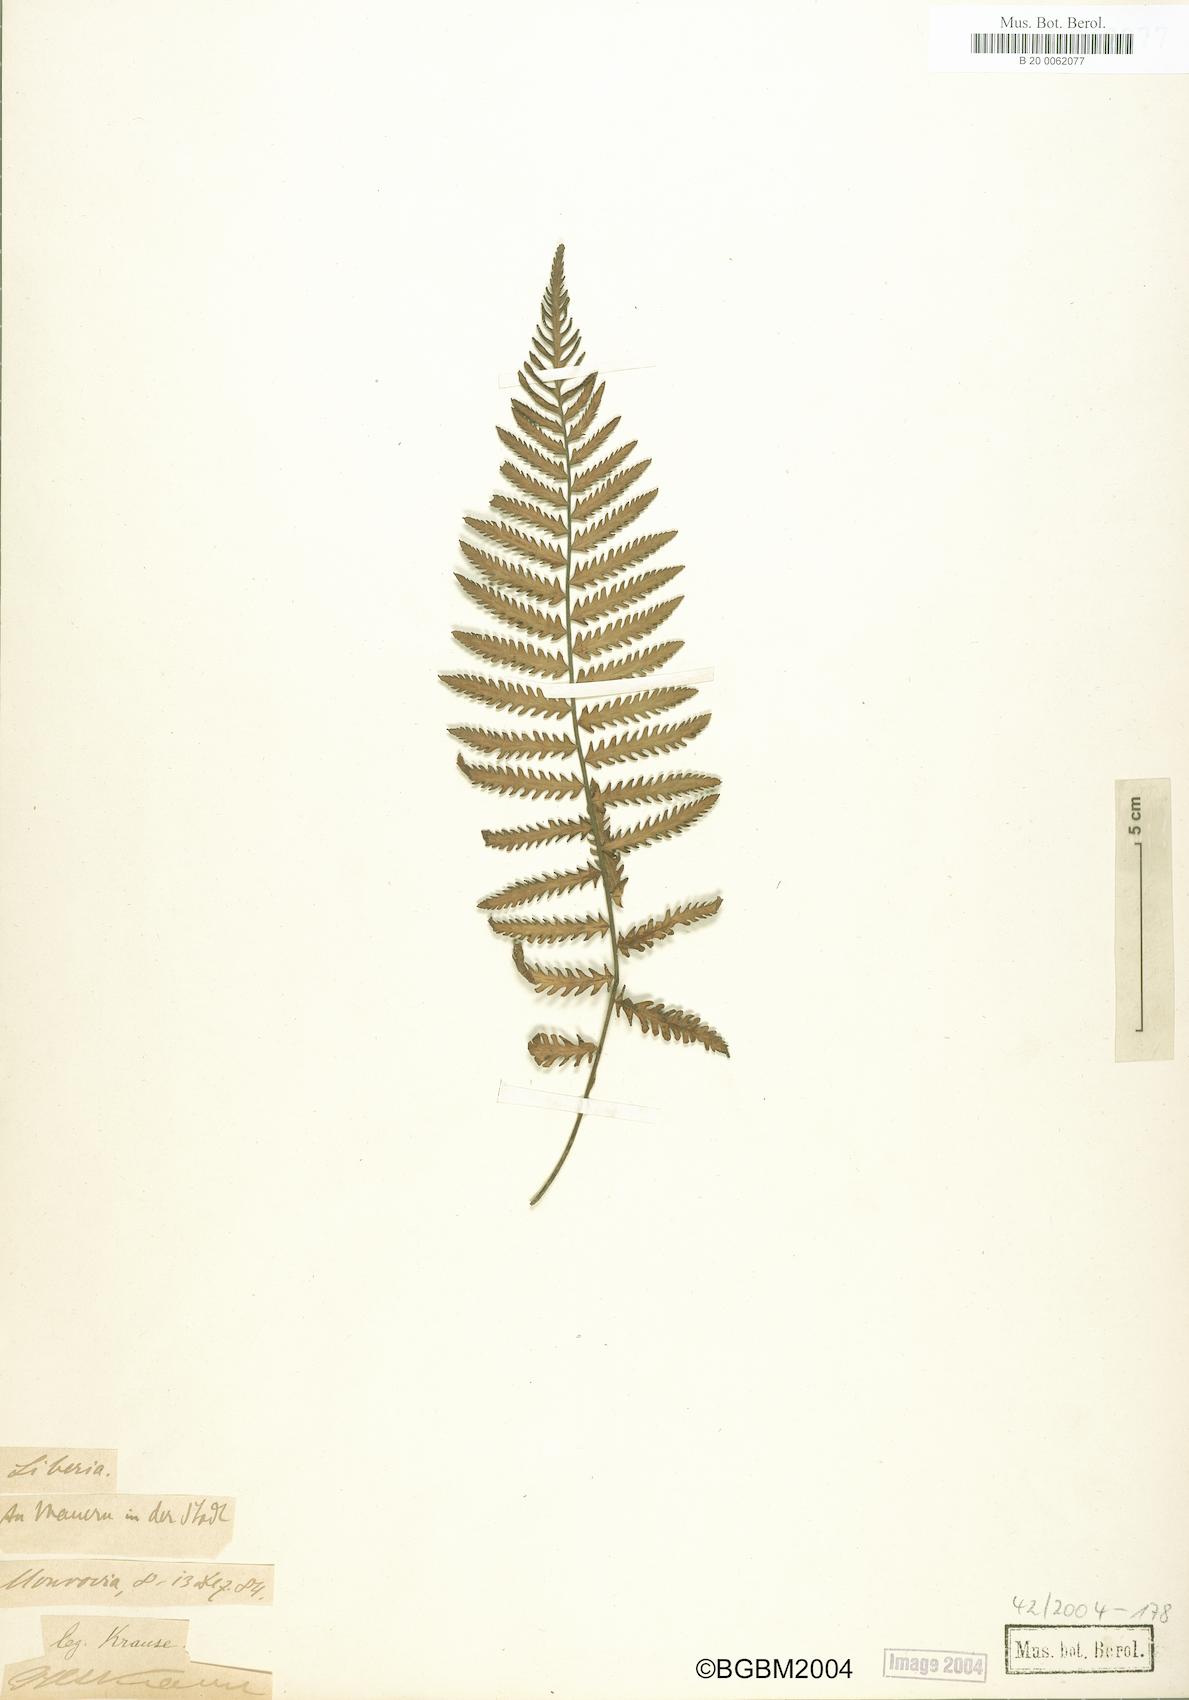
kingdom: Plantae
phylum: Tracheophyta
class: Polypodiopsida
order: Polypodiales
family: Tectariaceae
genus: Arthropteris
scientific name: Arthropteris orientalis
